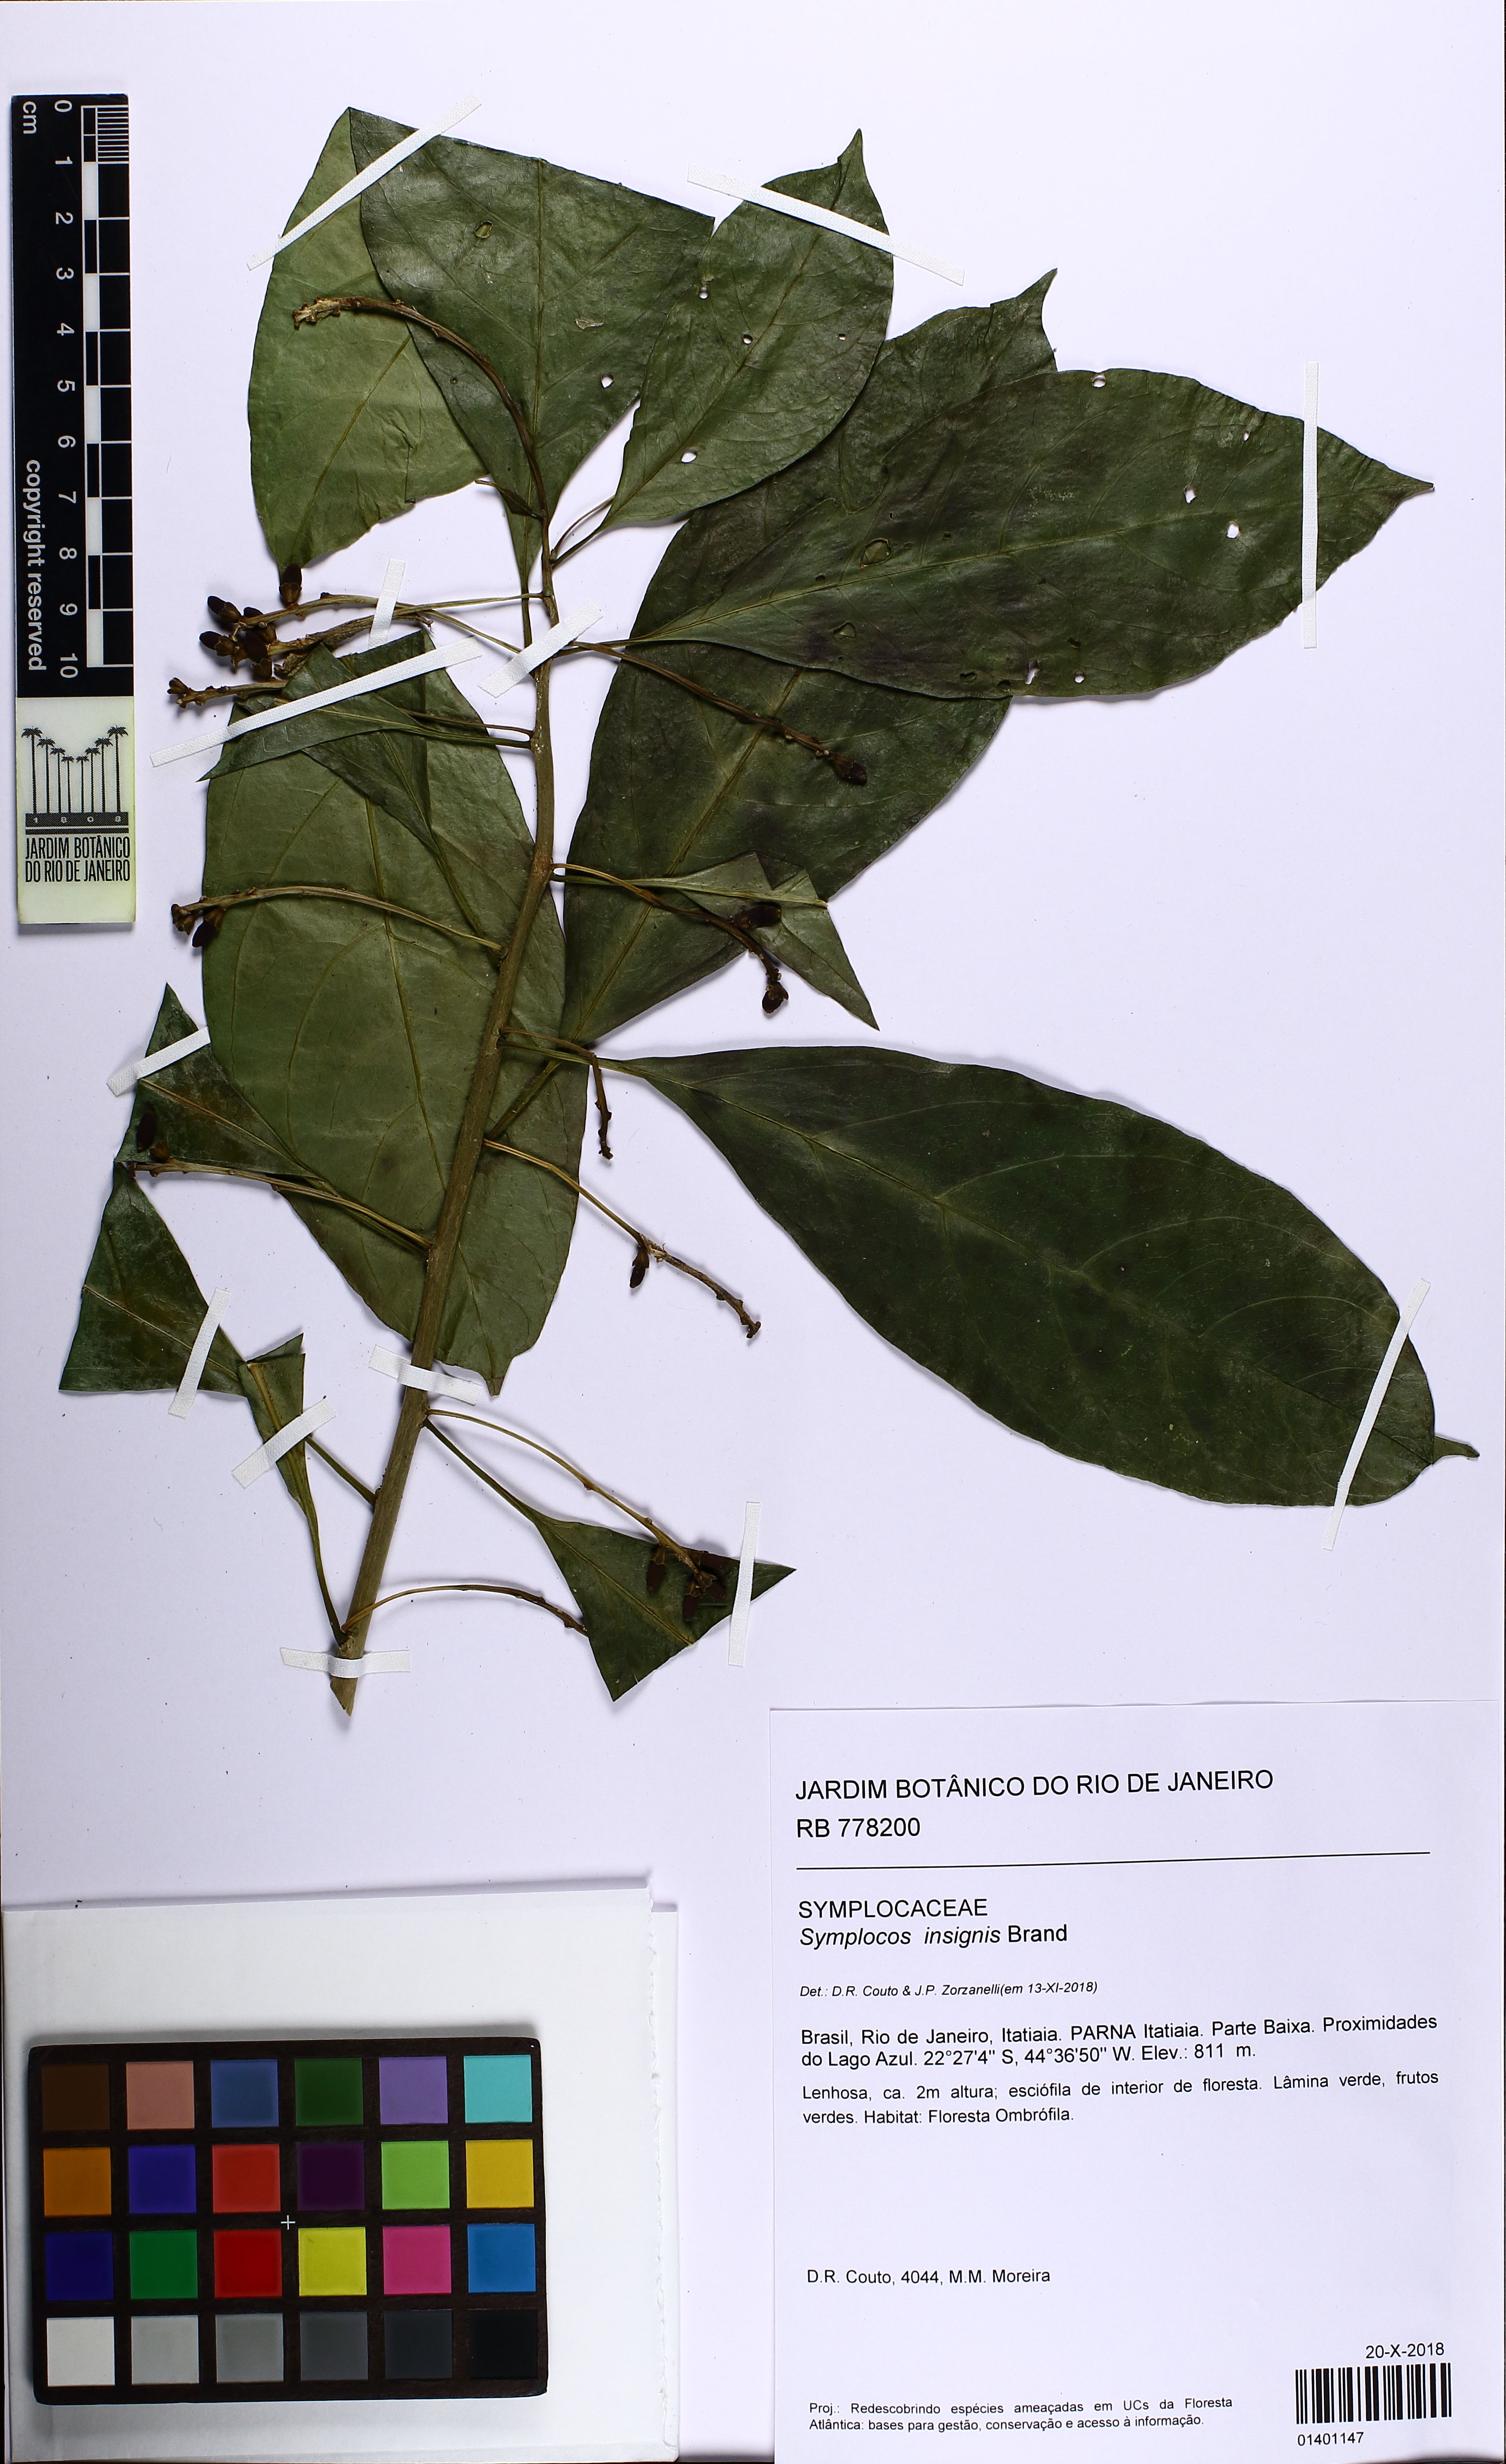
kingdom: Plantae
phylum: Tracheophyta
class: Magnoliopsida
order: Ericales
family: Symplocaceae
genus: Symplocos
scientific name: Symplocos insignis
